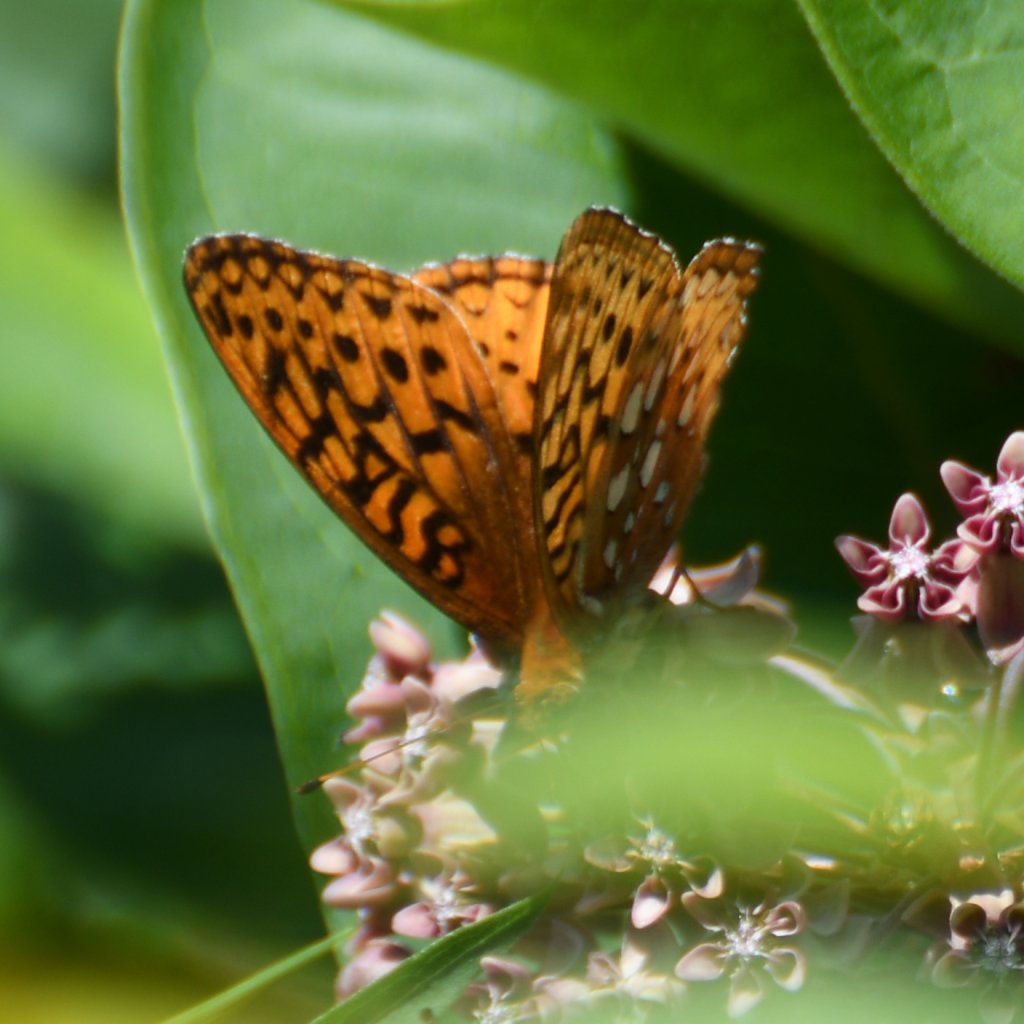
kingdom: Animalia
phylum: Arthropoda
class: Insecta
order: Lepidoptera
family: Nymphalidae
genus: Speyeria
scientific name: Speyeria cybele
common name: Great Spangled Fritillary
